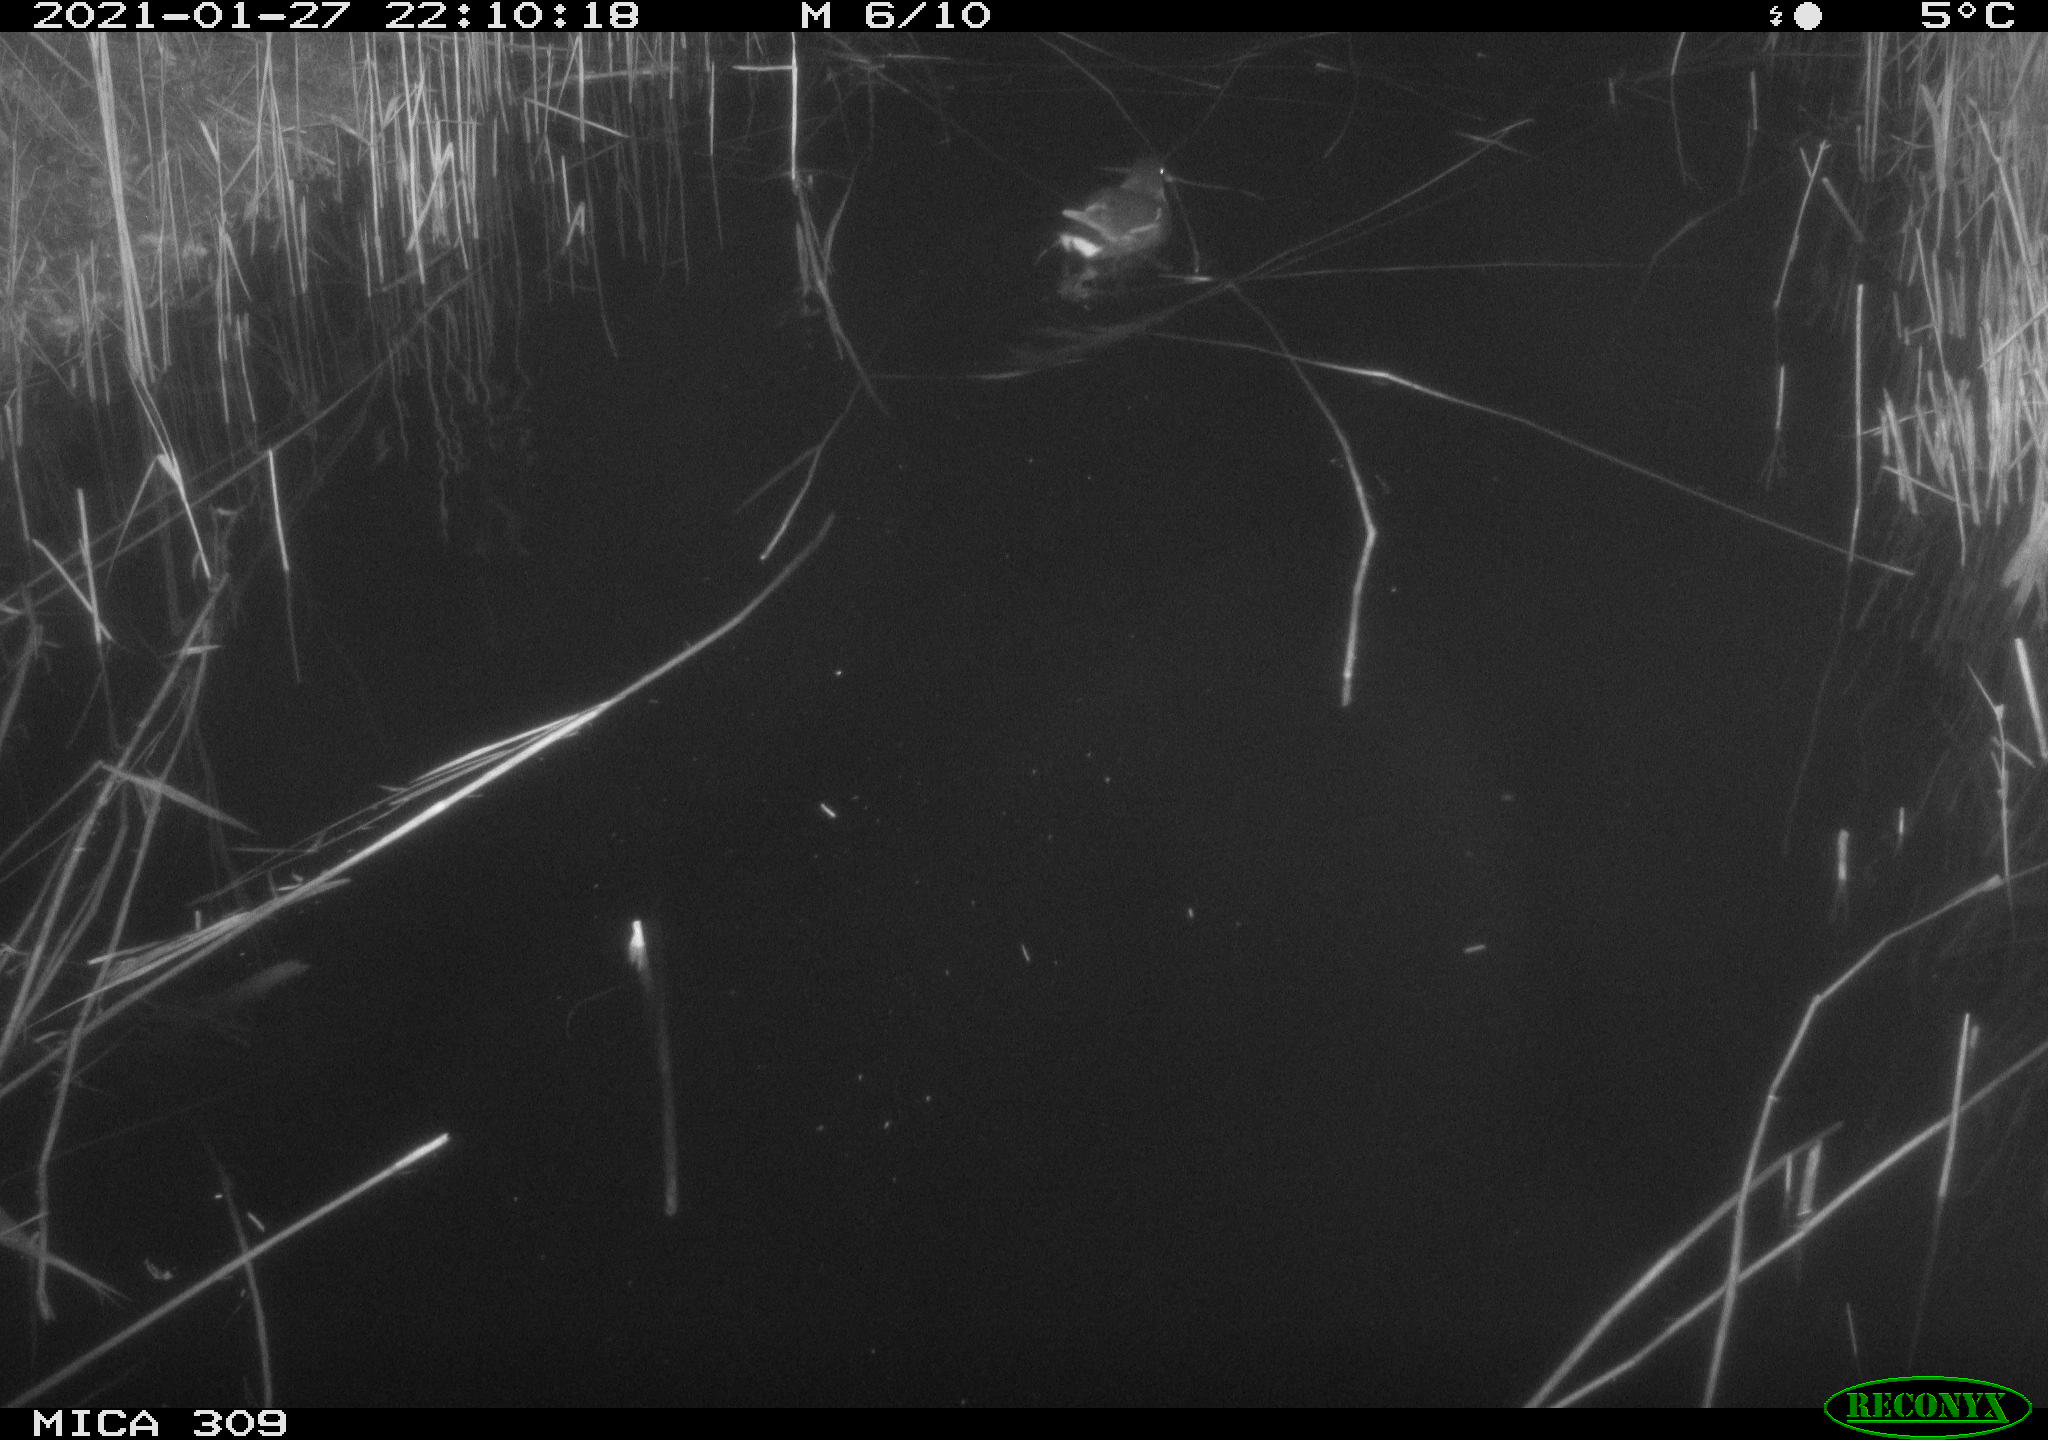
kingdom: Animalia
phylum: Chordata
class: Aves
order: Gruiformes
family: Rallidae
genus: Gallinula
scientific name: Gallinula chloropus
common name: Common moorhen
